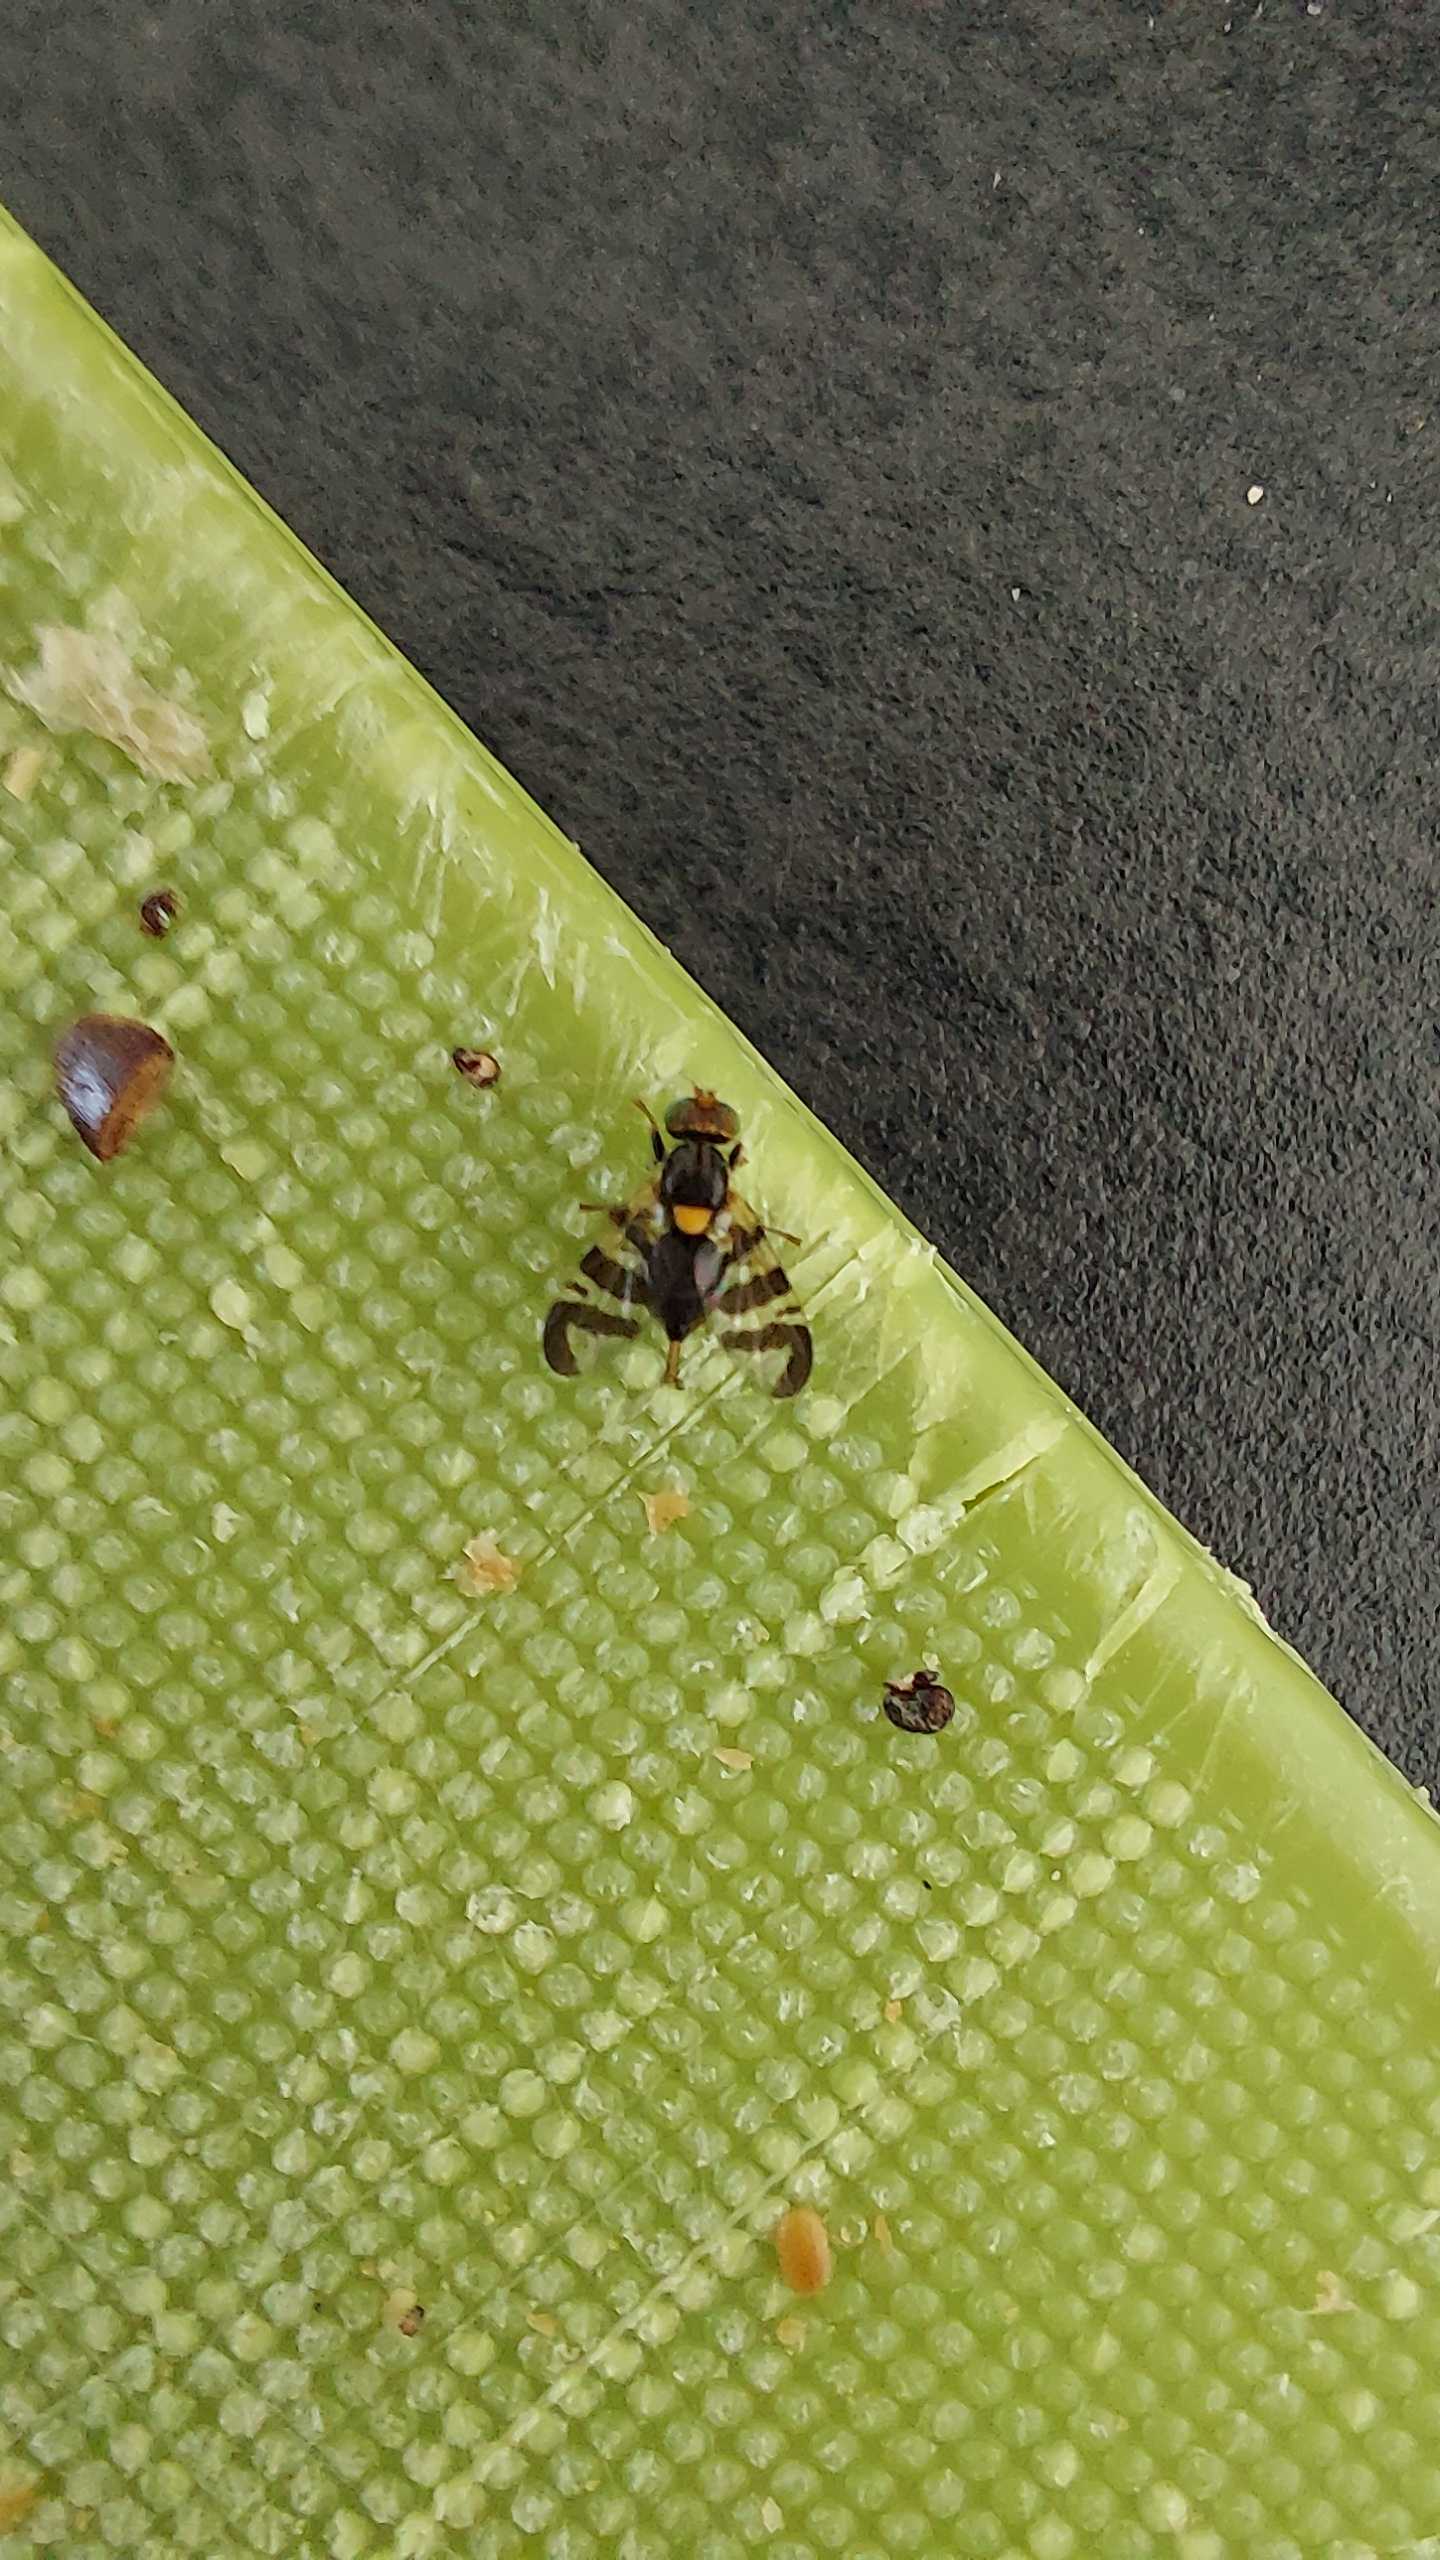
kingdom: Animalia
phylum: Arthropoda
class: Insecta
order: Diptera
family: Tephritidae
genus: Rhagoletis
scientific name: Rhagoletis cerasi
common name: Kirsebærflue
